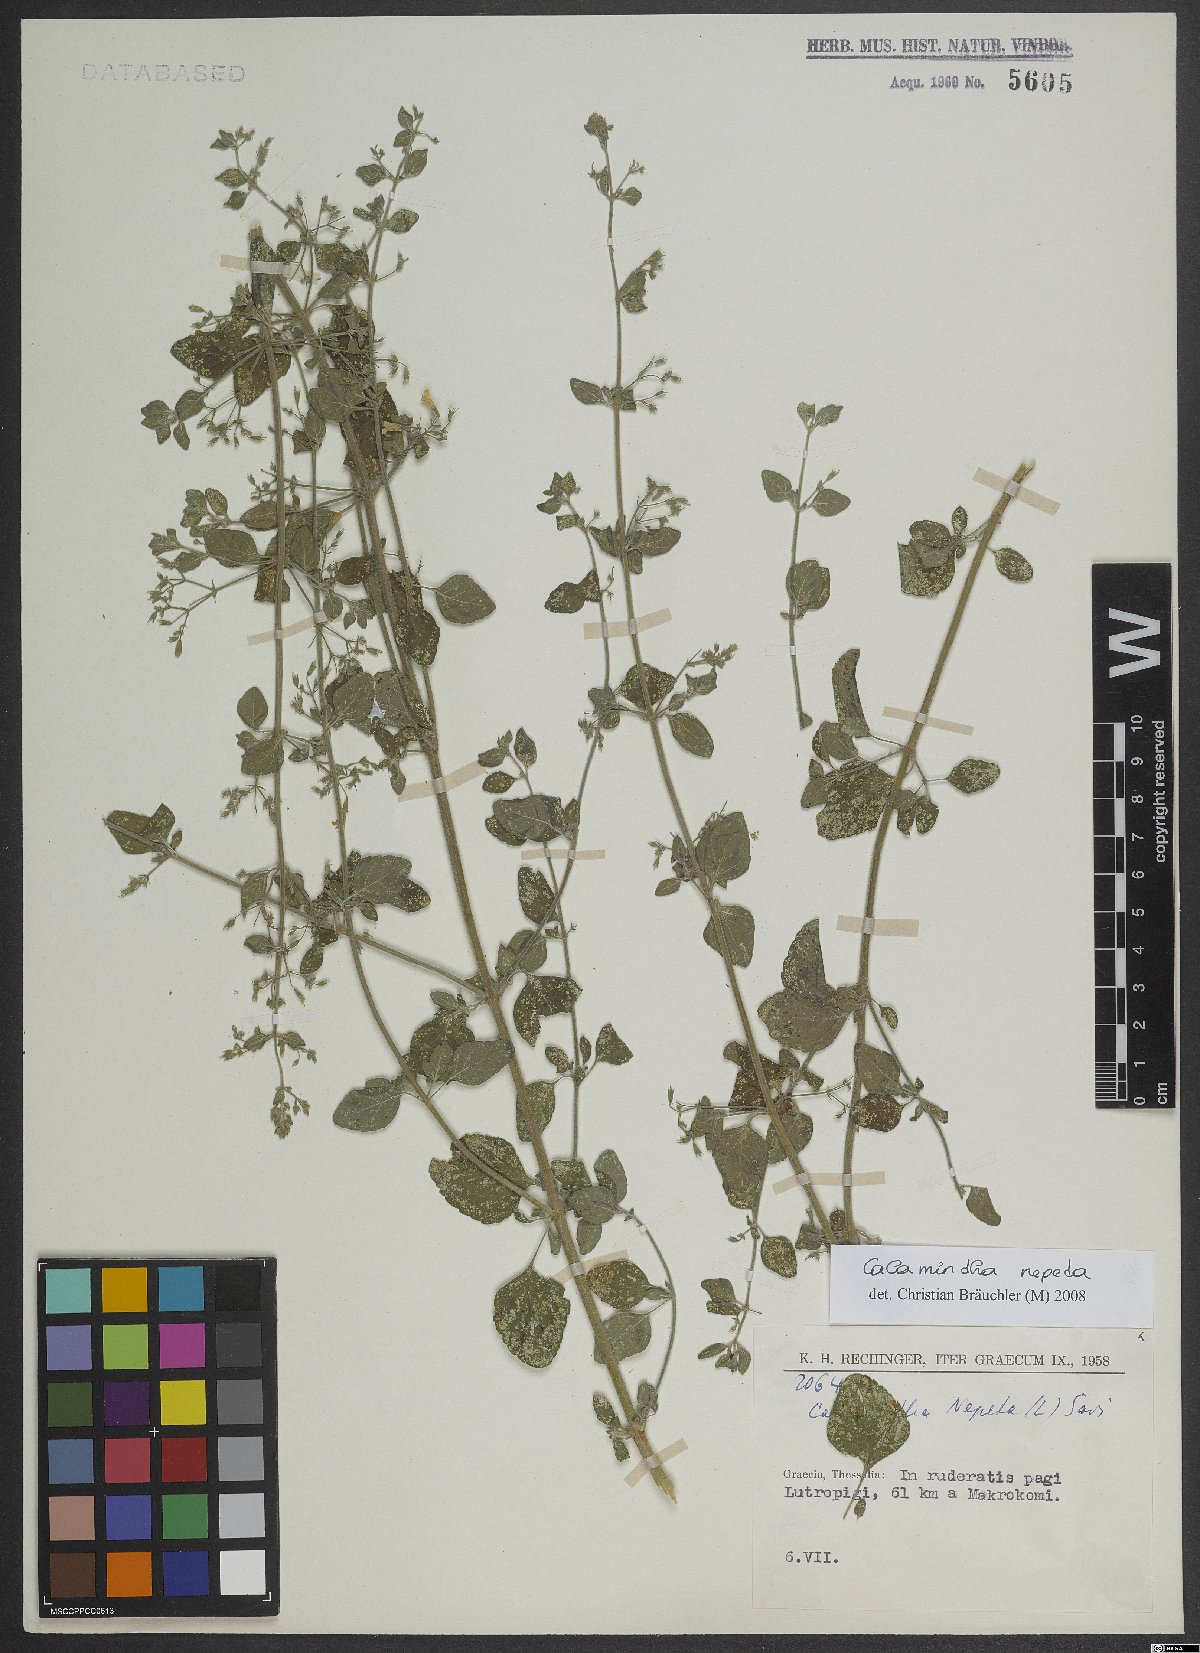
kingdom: Plantae
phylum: Tracheophyta
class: Magnoliopsida
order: Lamiales
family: Lamiaceae
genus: Clinopodium
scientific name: Clinopodium nepeta
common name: Lesser calamint
